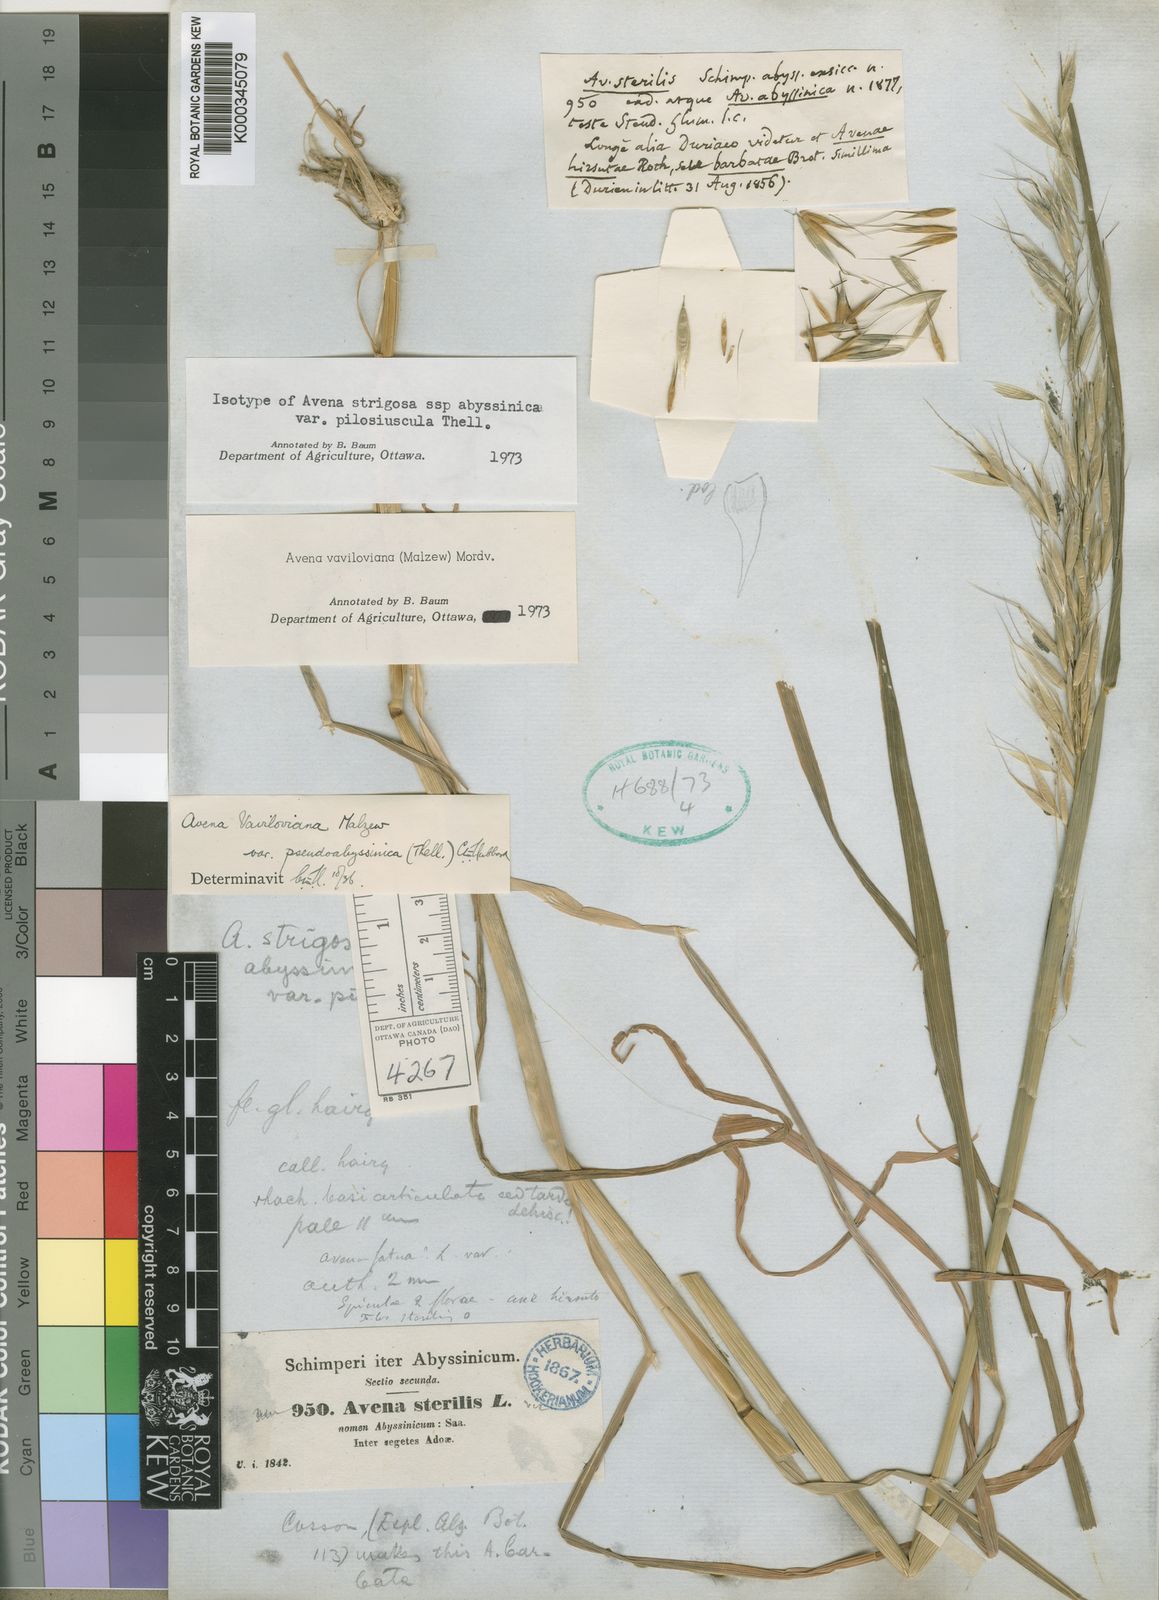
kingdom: Plantae
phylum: Tracheophyta
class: Liliopsida
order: Poales
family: Poaceae
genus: Avena
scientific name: Avena vaviloviana
